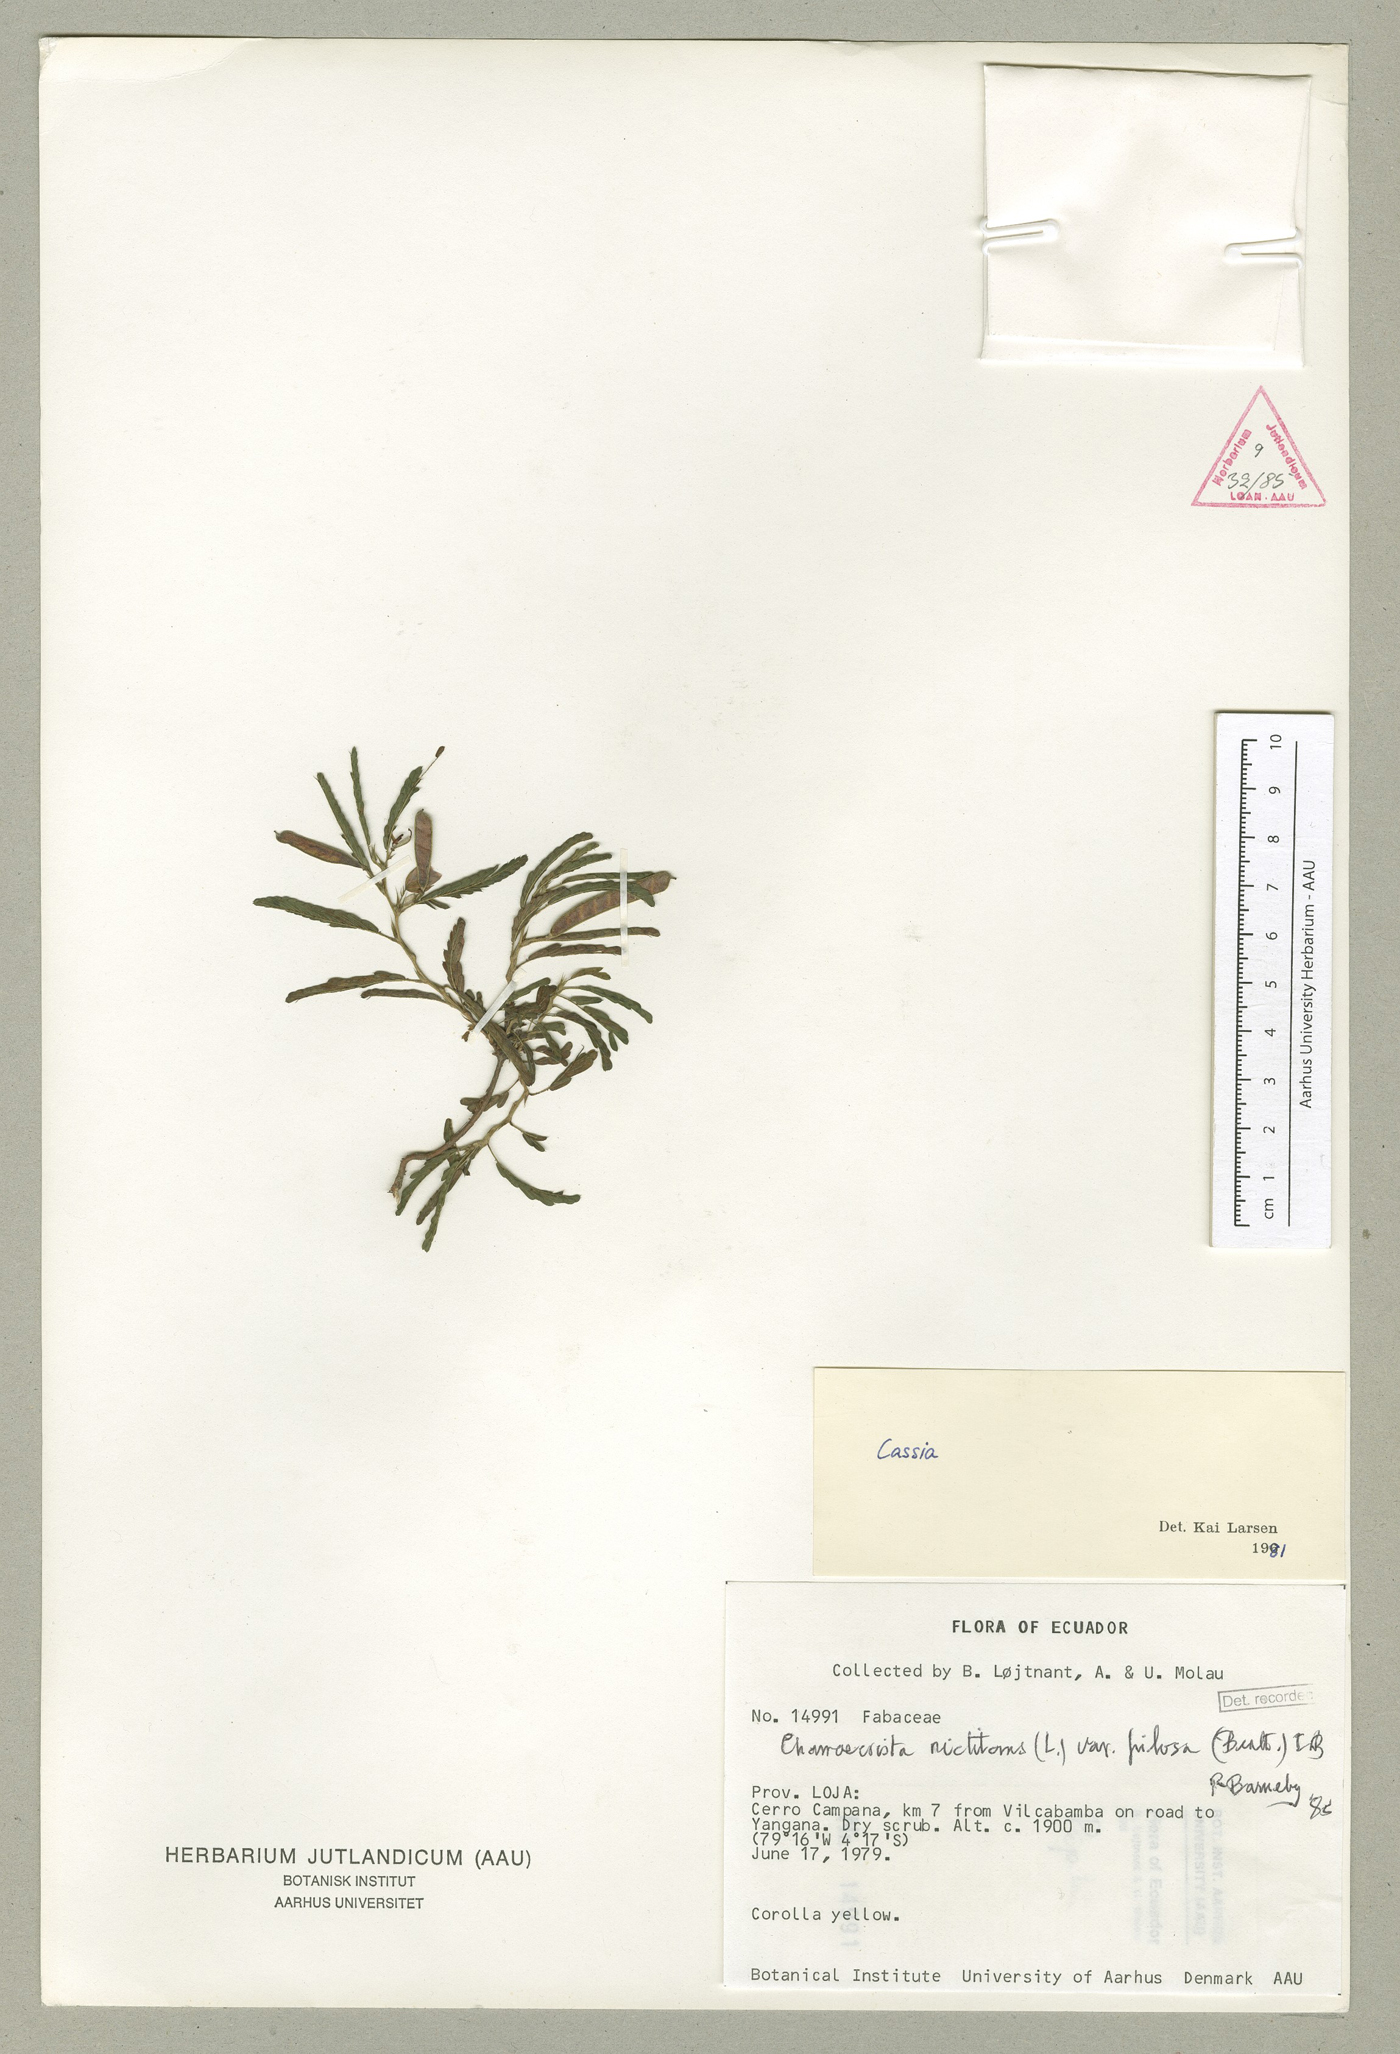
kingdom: Plantae
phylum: Tracheophyta
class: Magnoliopsida
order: Fabales
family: Fabaceae
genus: Chamaecrista
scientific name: Chamaecrista nictitans
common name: Sensitive cassia
